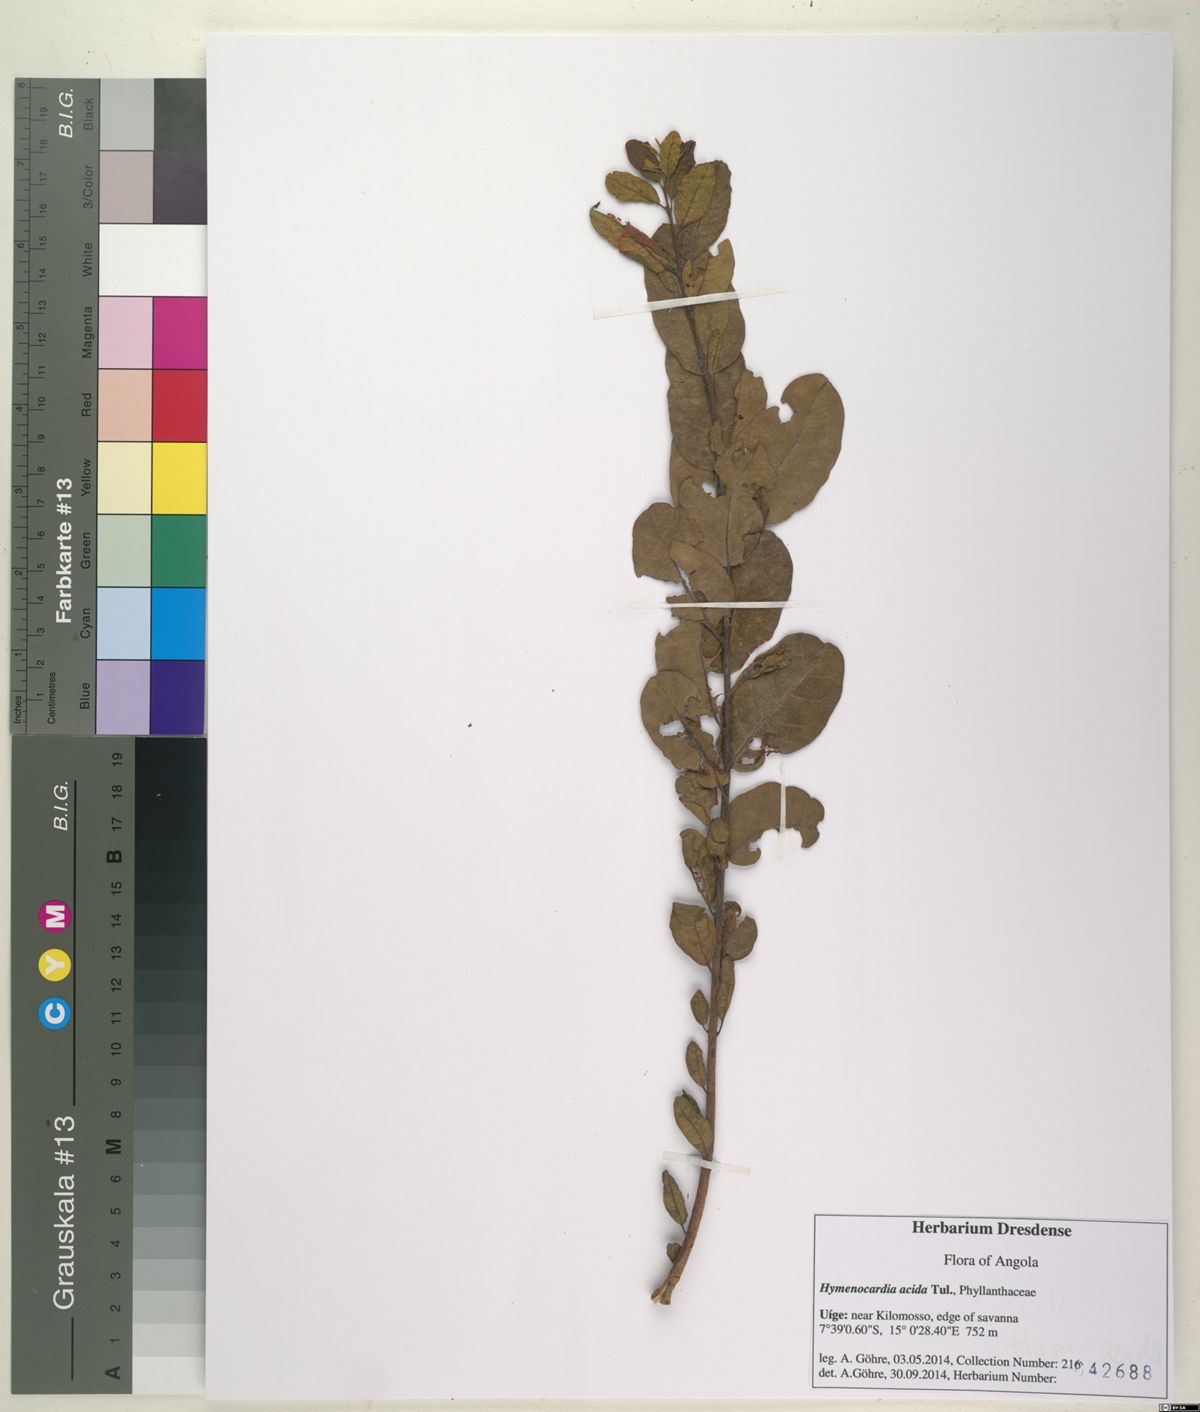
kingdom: Plantae
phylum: Tracheophyta
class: Magnoliopsida
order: Malpighiales
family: Phyllanthaceae
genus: Hymenocardia
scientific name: Hymenocardia acida
